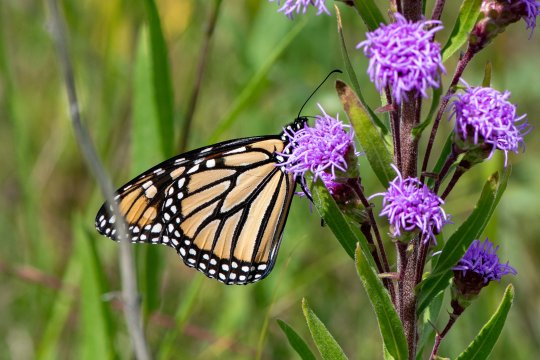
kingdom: Animalia
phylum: Arthropoda
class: Insecta
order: Lepidoptera
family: Nymphalidae
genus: Danaus
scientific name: Danaus plexippus
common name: Monarch
